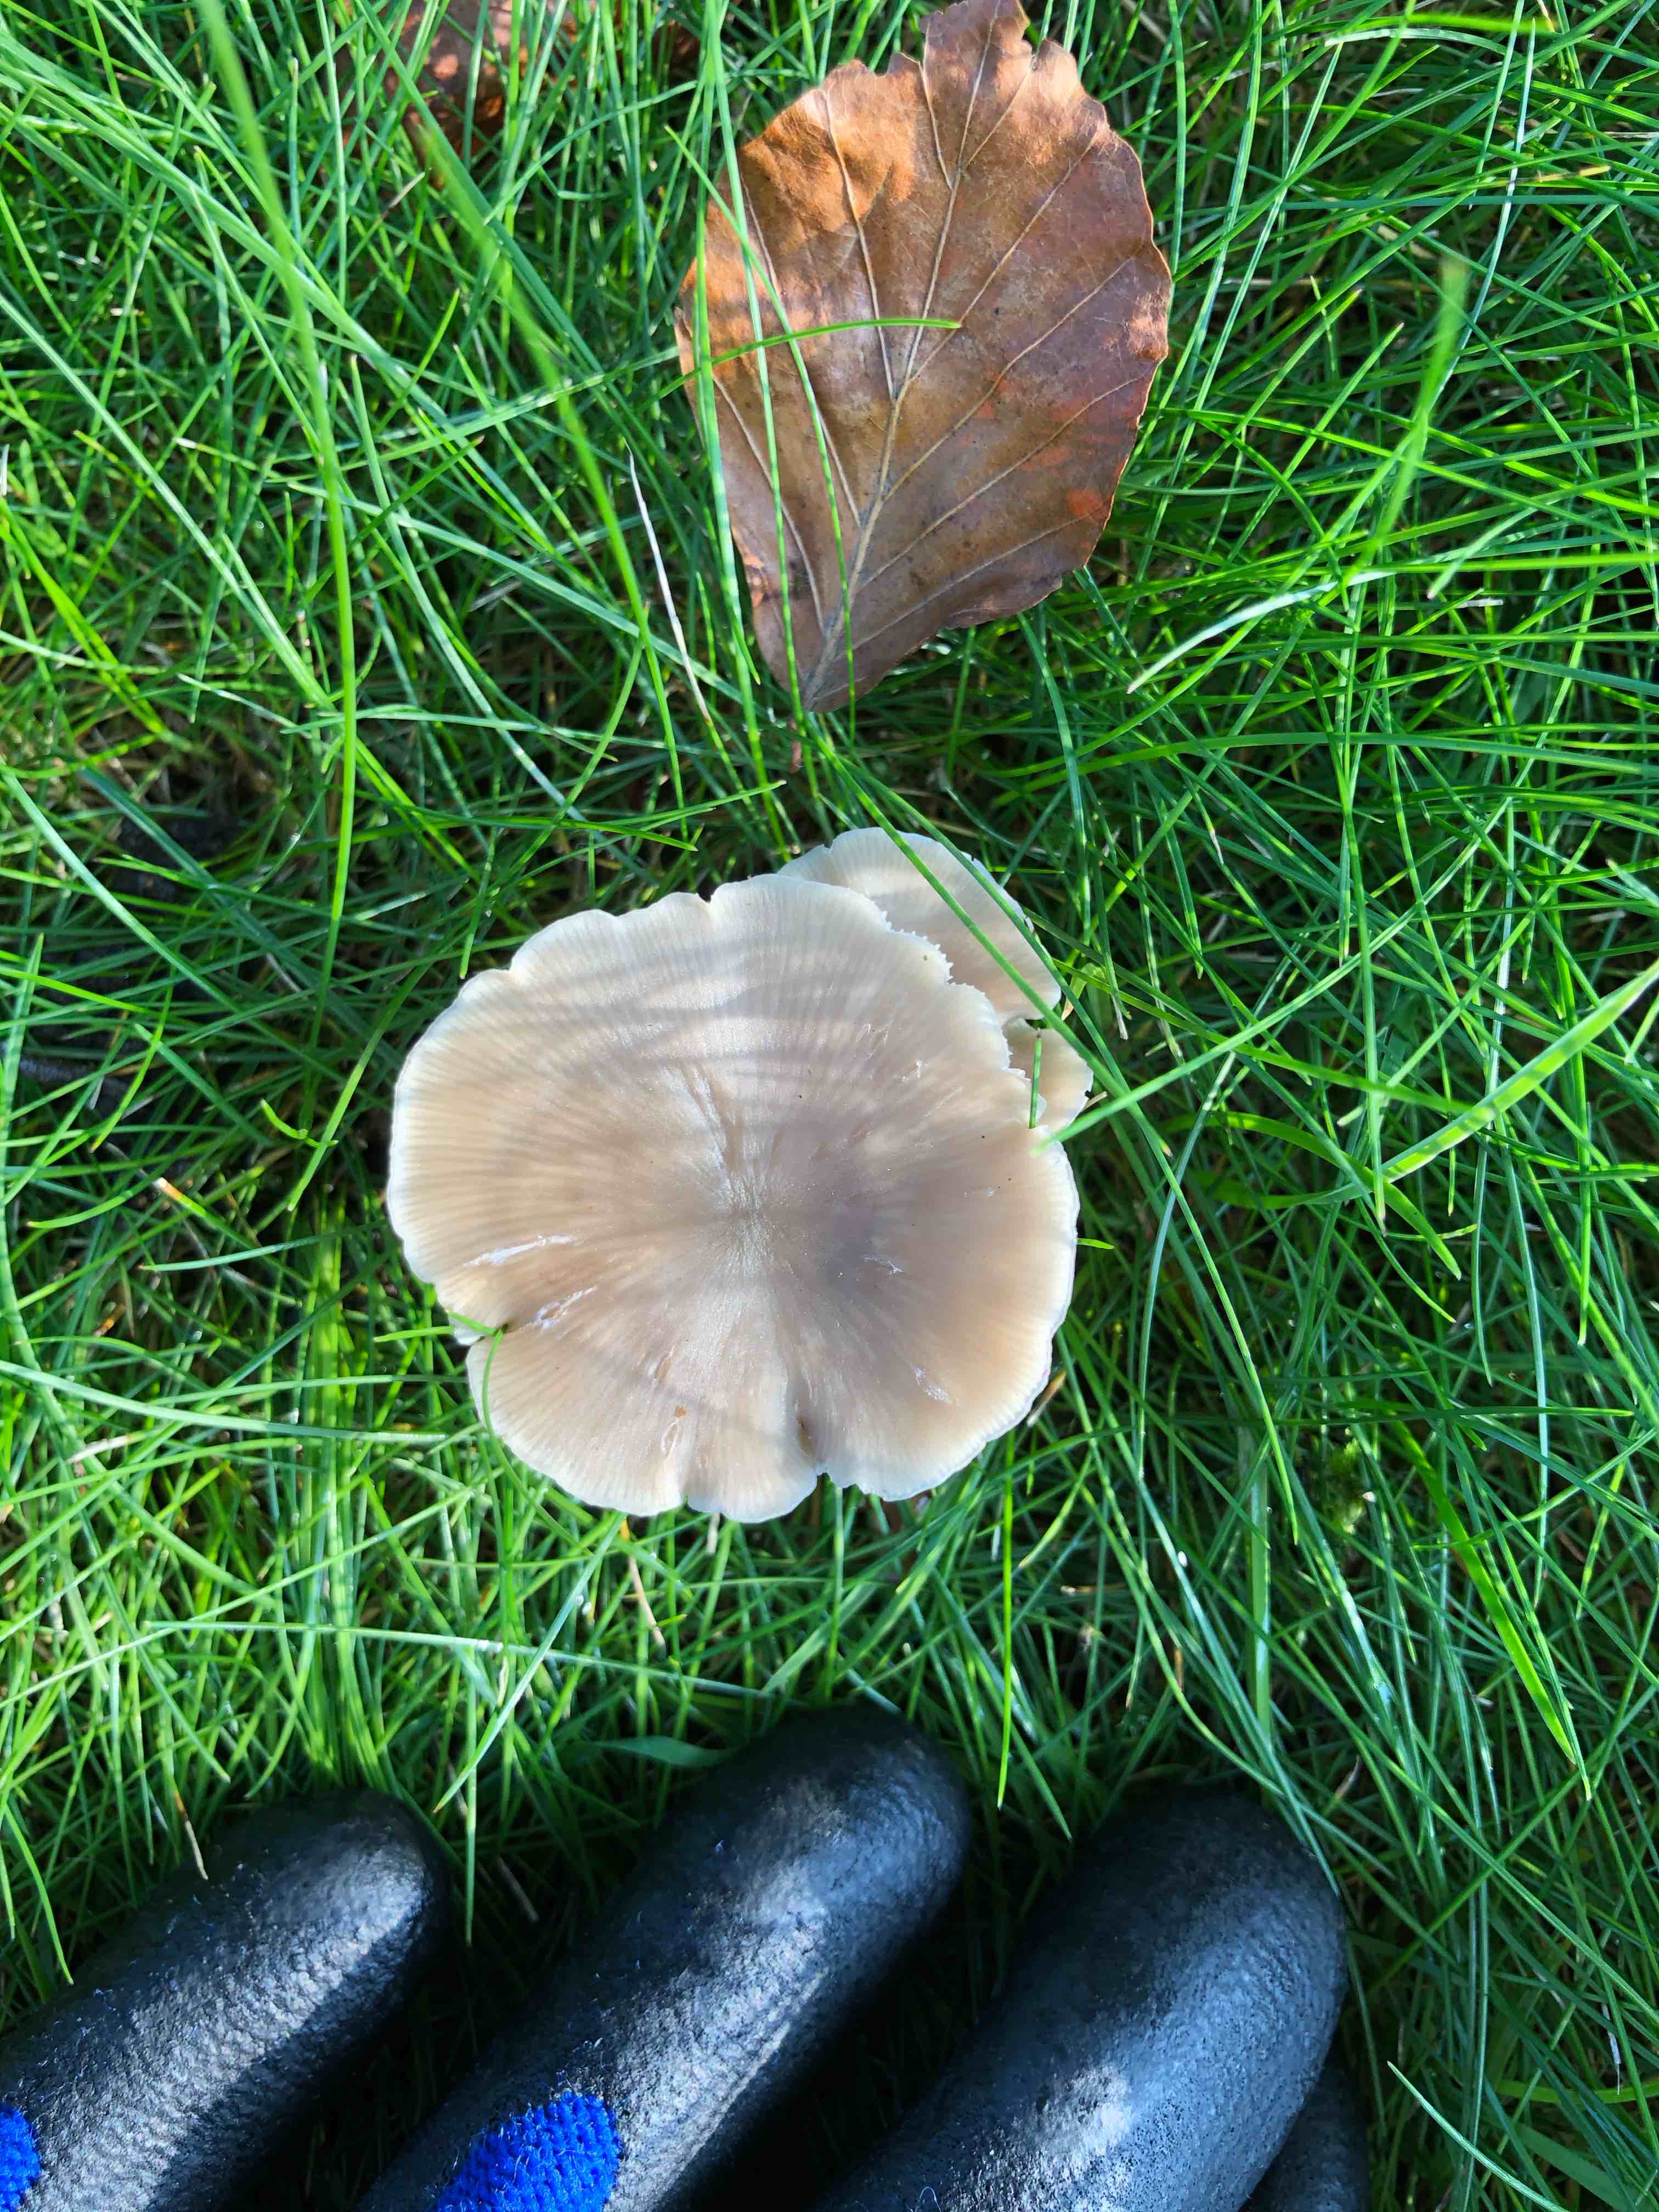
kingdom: Fungi
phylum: Basidiomycota
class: Agaricomycetes
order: Agaricales
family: Entolomataceae
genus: Entoloma
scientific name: Entoloma
